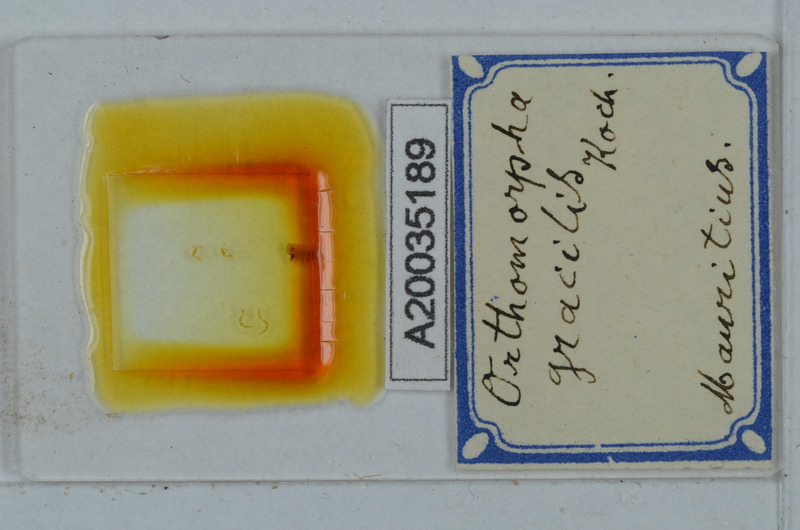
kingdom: Animalia
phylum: Arthropoda
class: Diplopoda
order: Polydesmida
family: Paradoxosomatidae
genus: Oxidus
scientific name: Oxidus gracilis
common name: Greenhouse millipede
